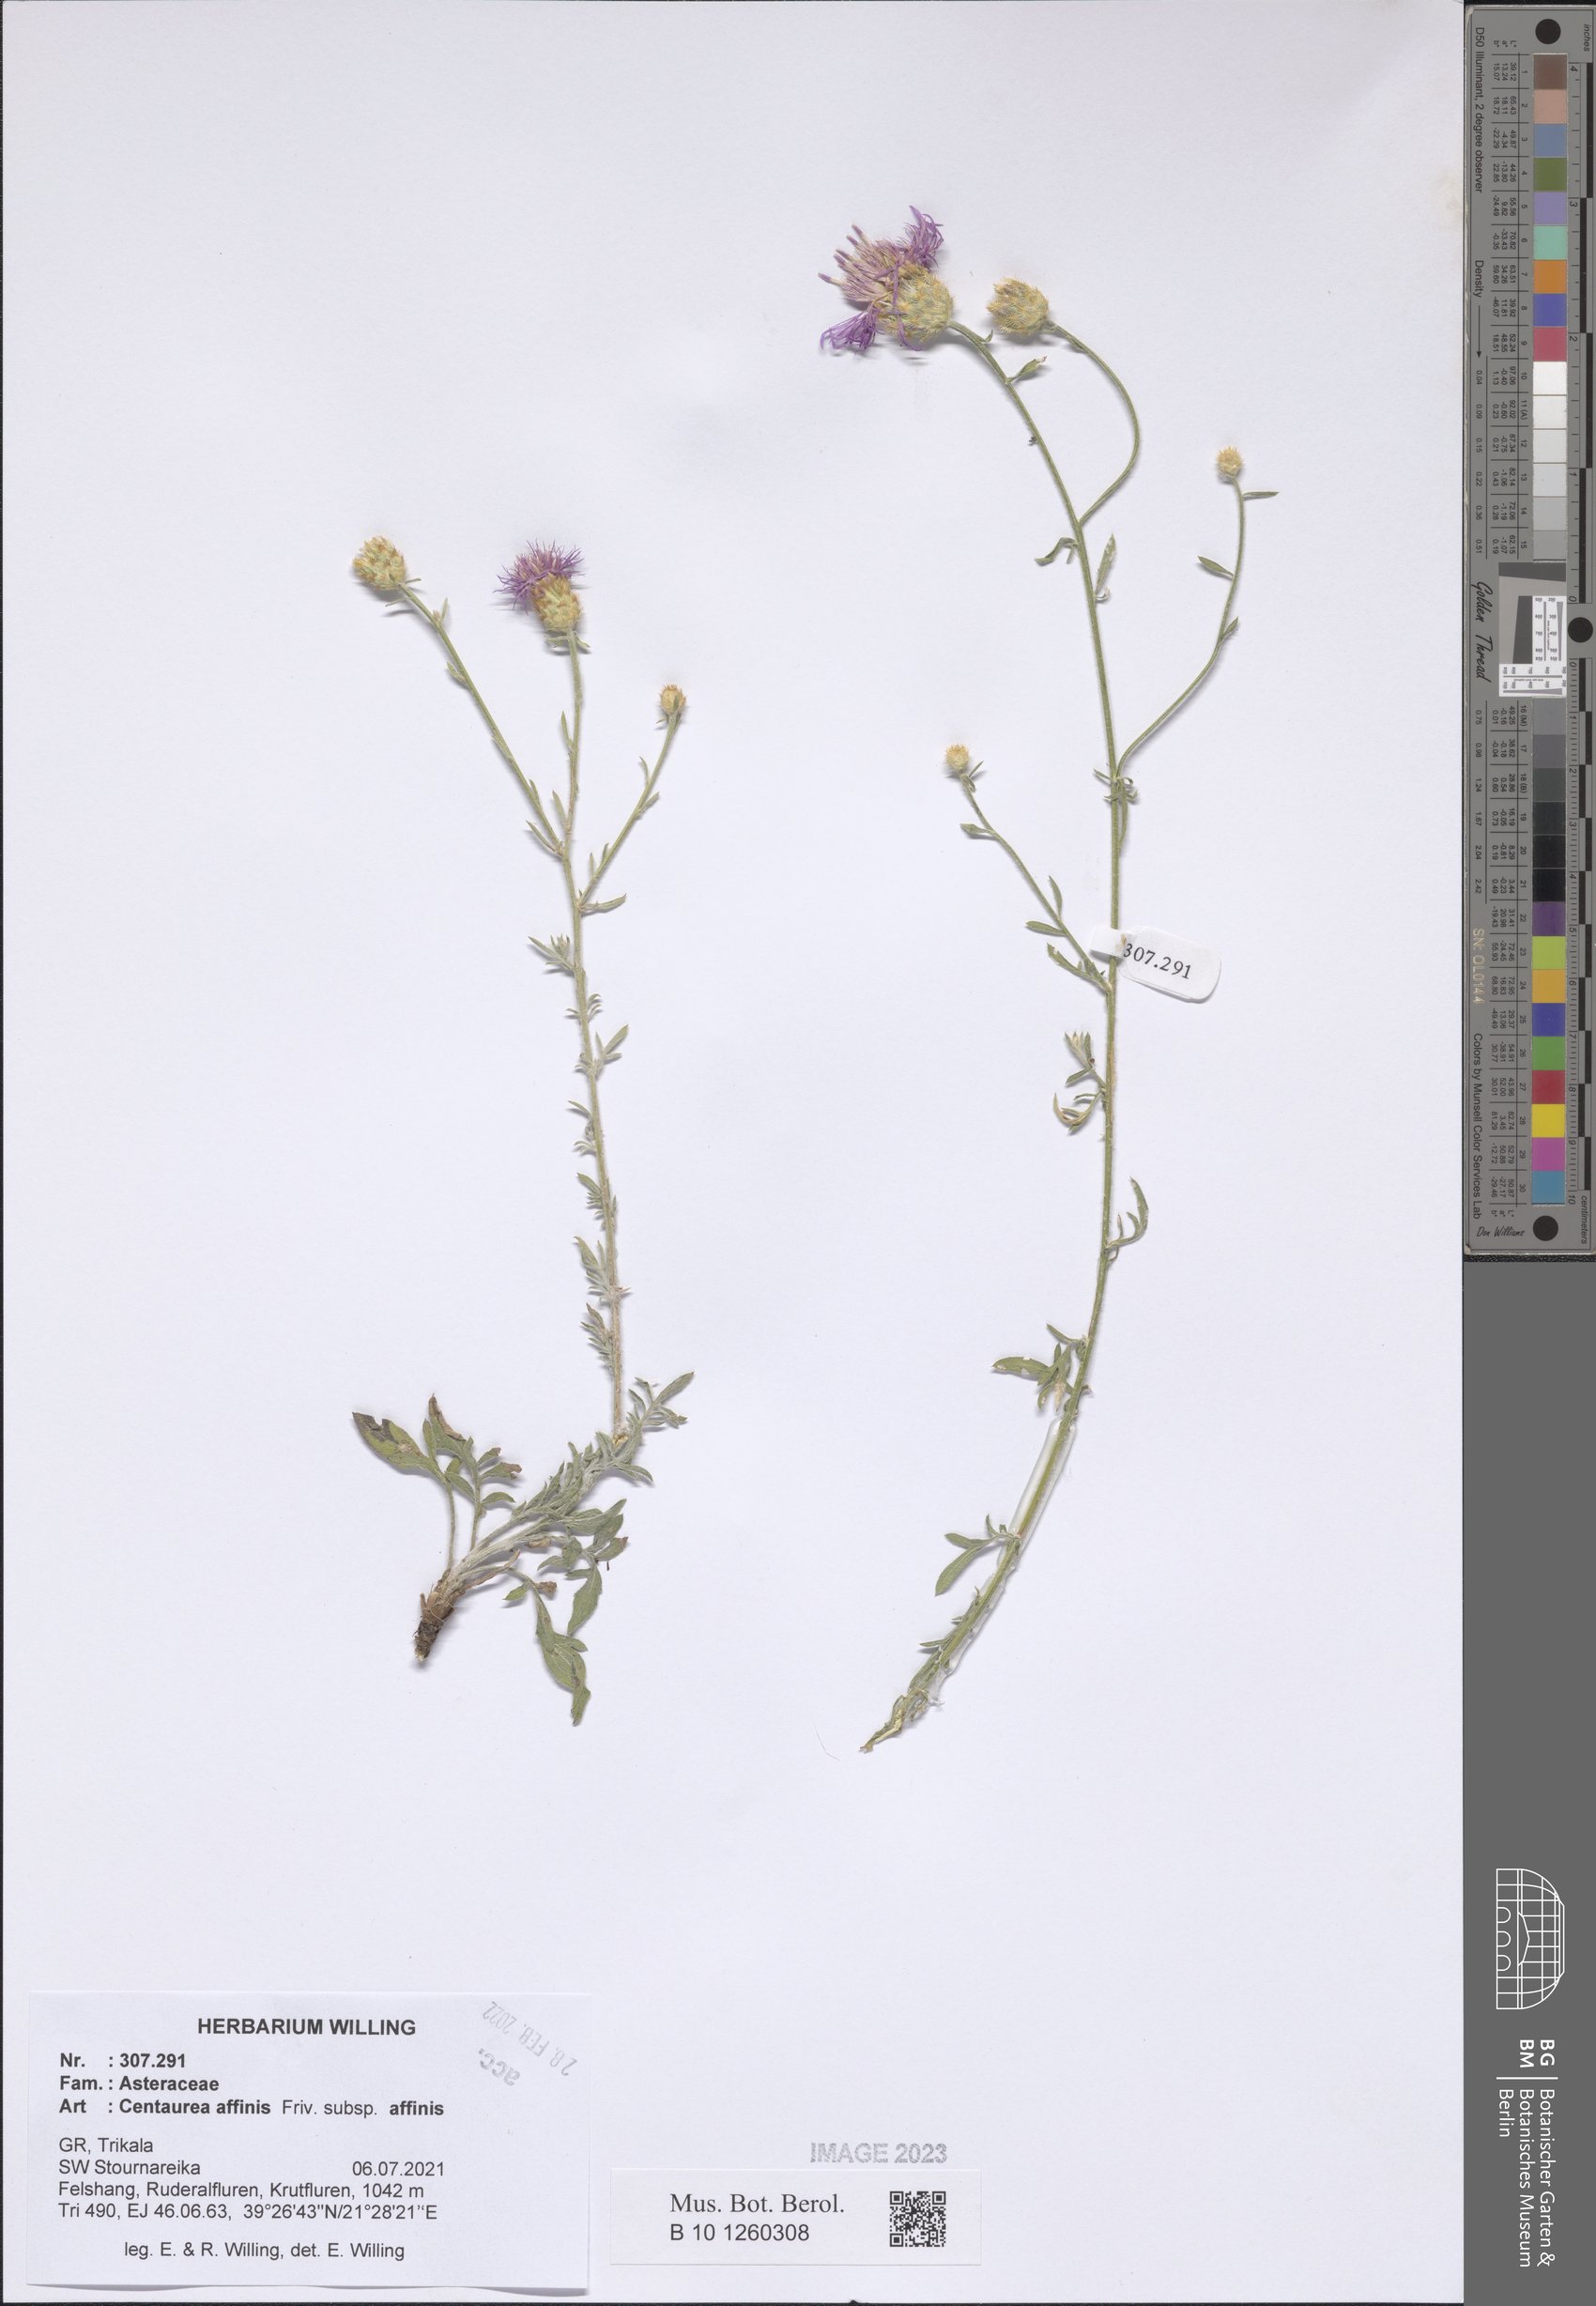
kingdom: Plantae
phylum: Tracheophyta
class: Magnoliopsida
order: Asterales
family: Asteraceae
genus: Centaurea
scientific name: Centaurea affinis
